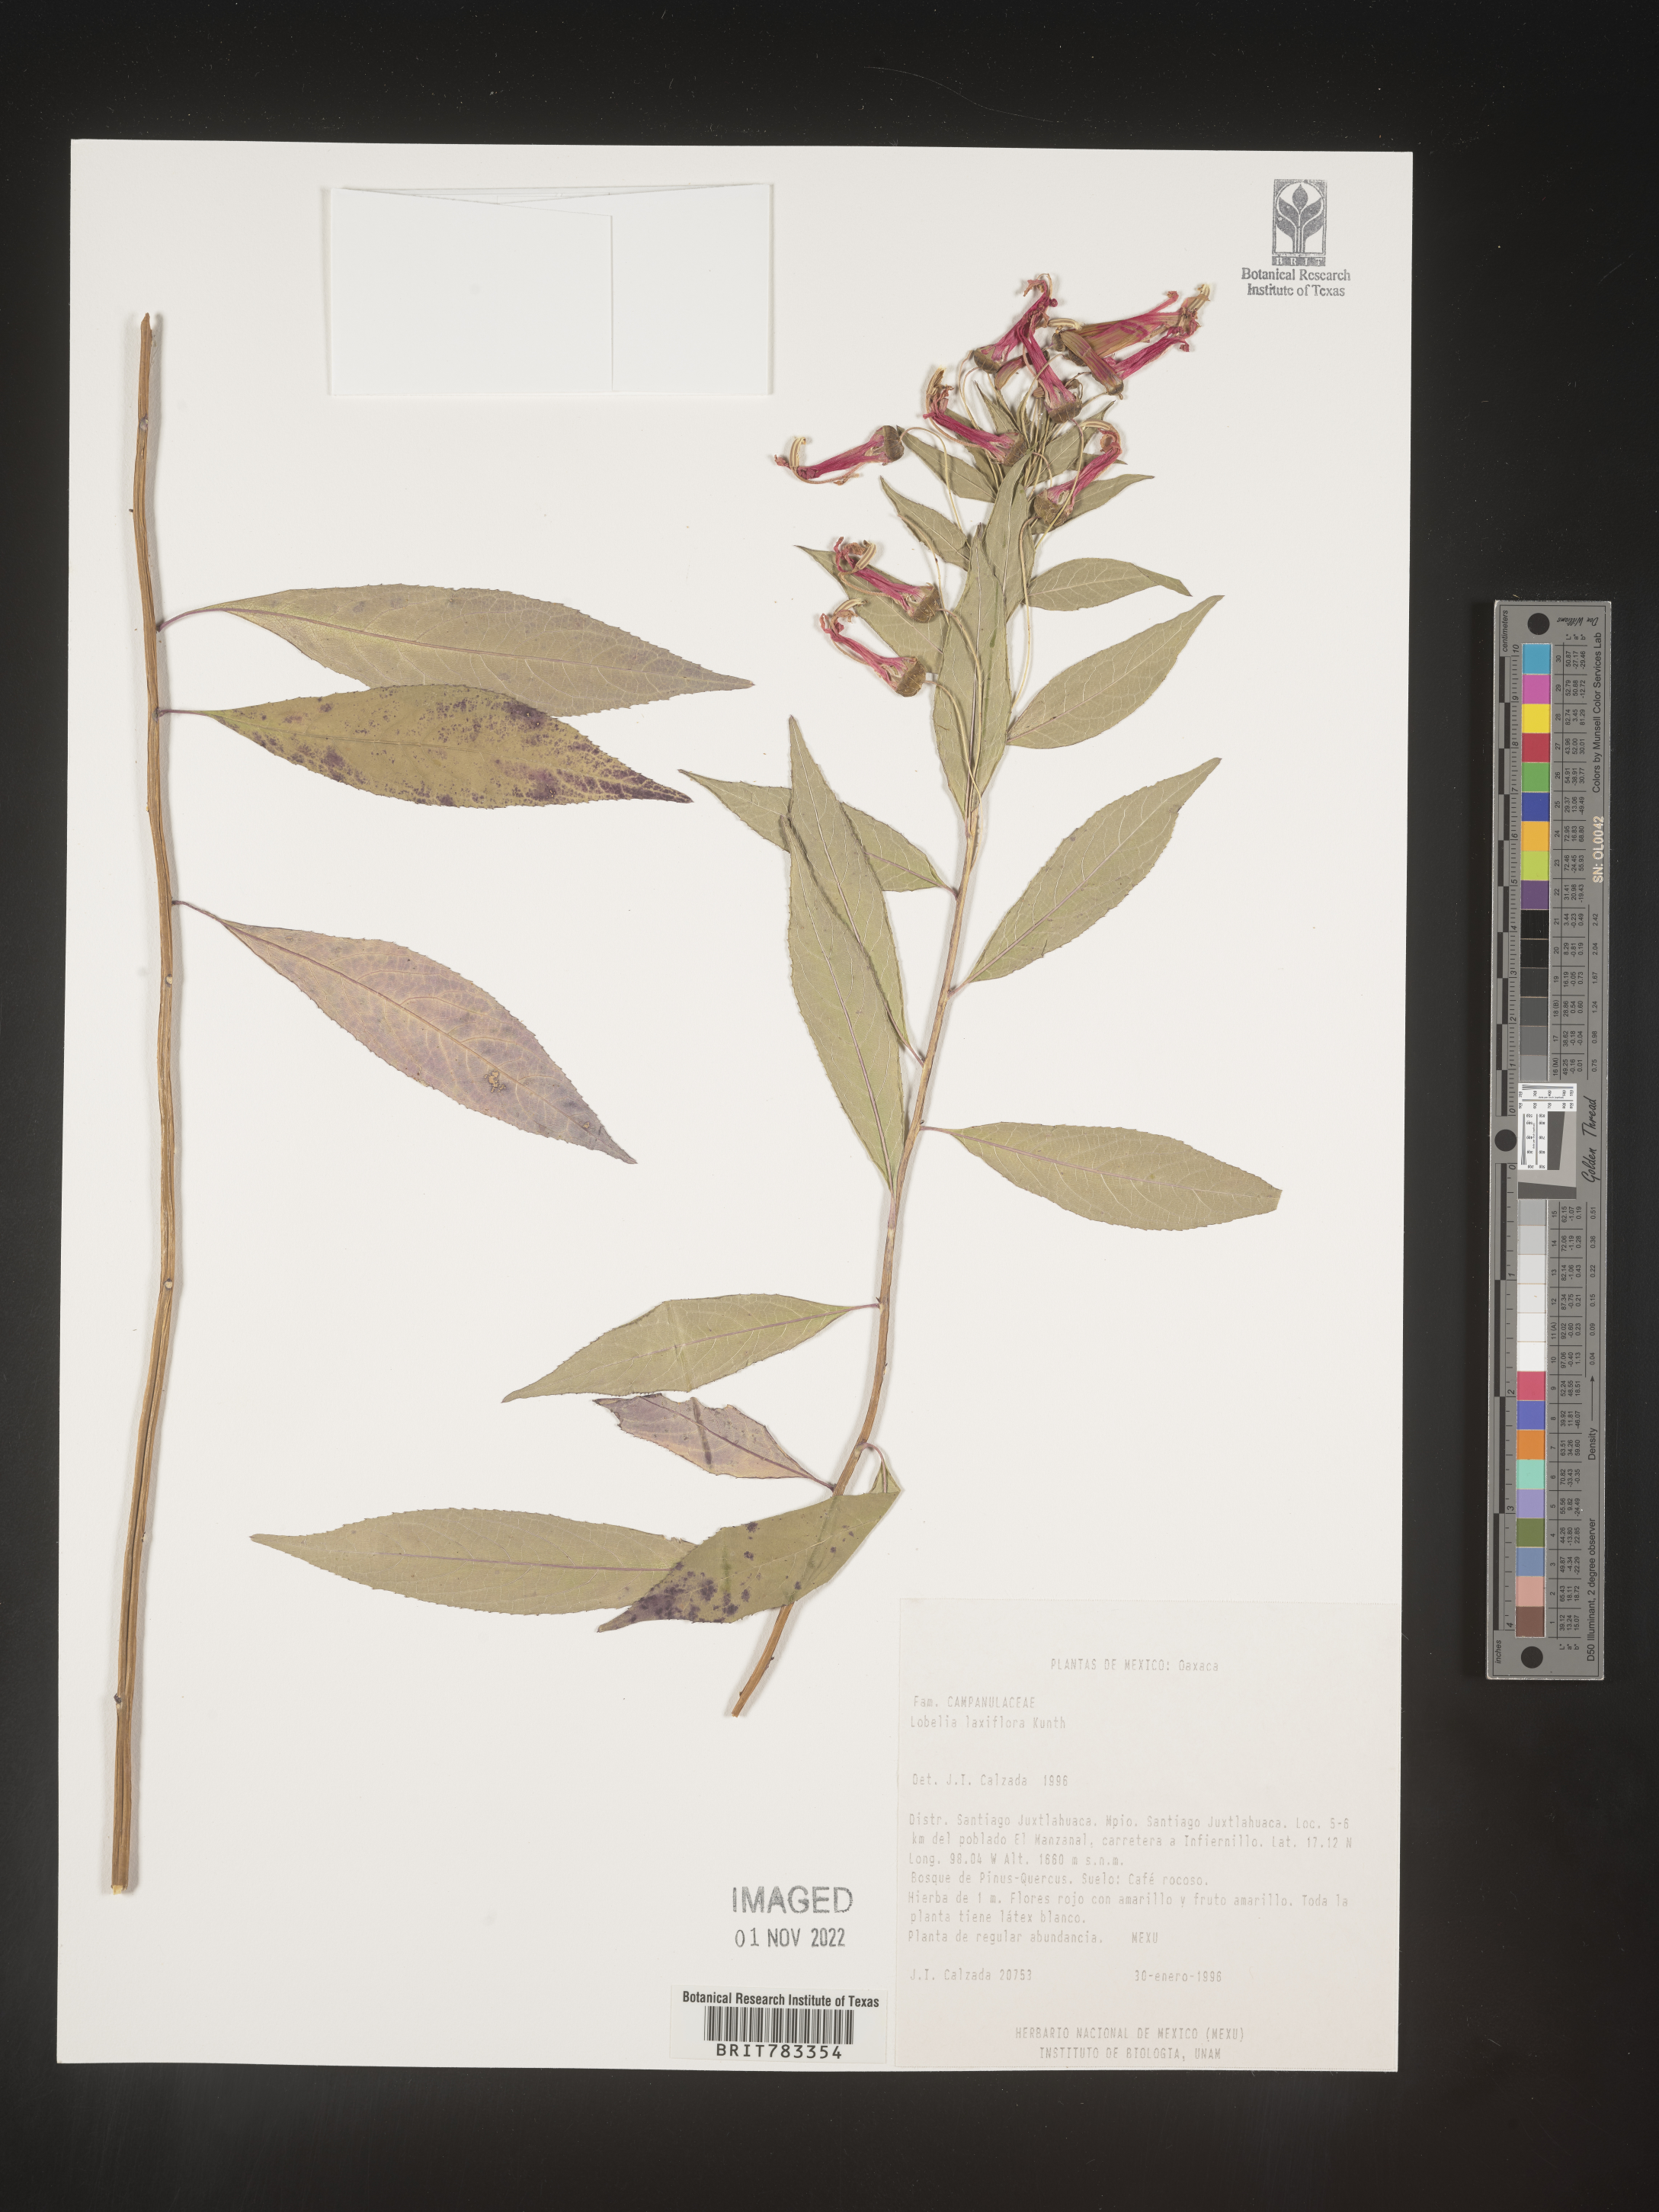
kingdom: Plantae
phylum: Tracheophyta
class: Magnoliopsida
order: Asterales
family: Campanulaceae
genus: Lobelia
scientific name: Lobelia
